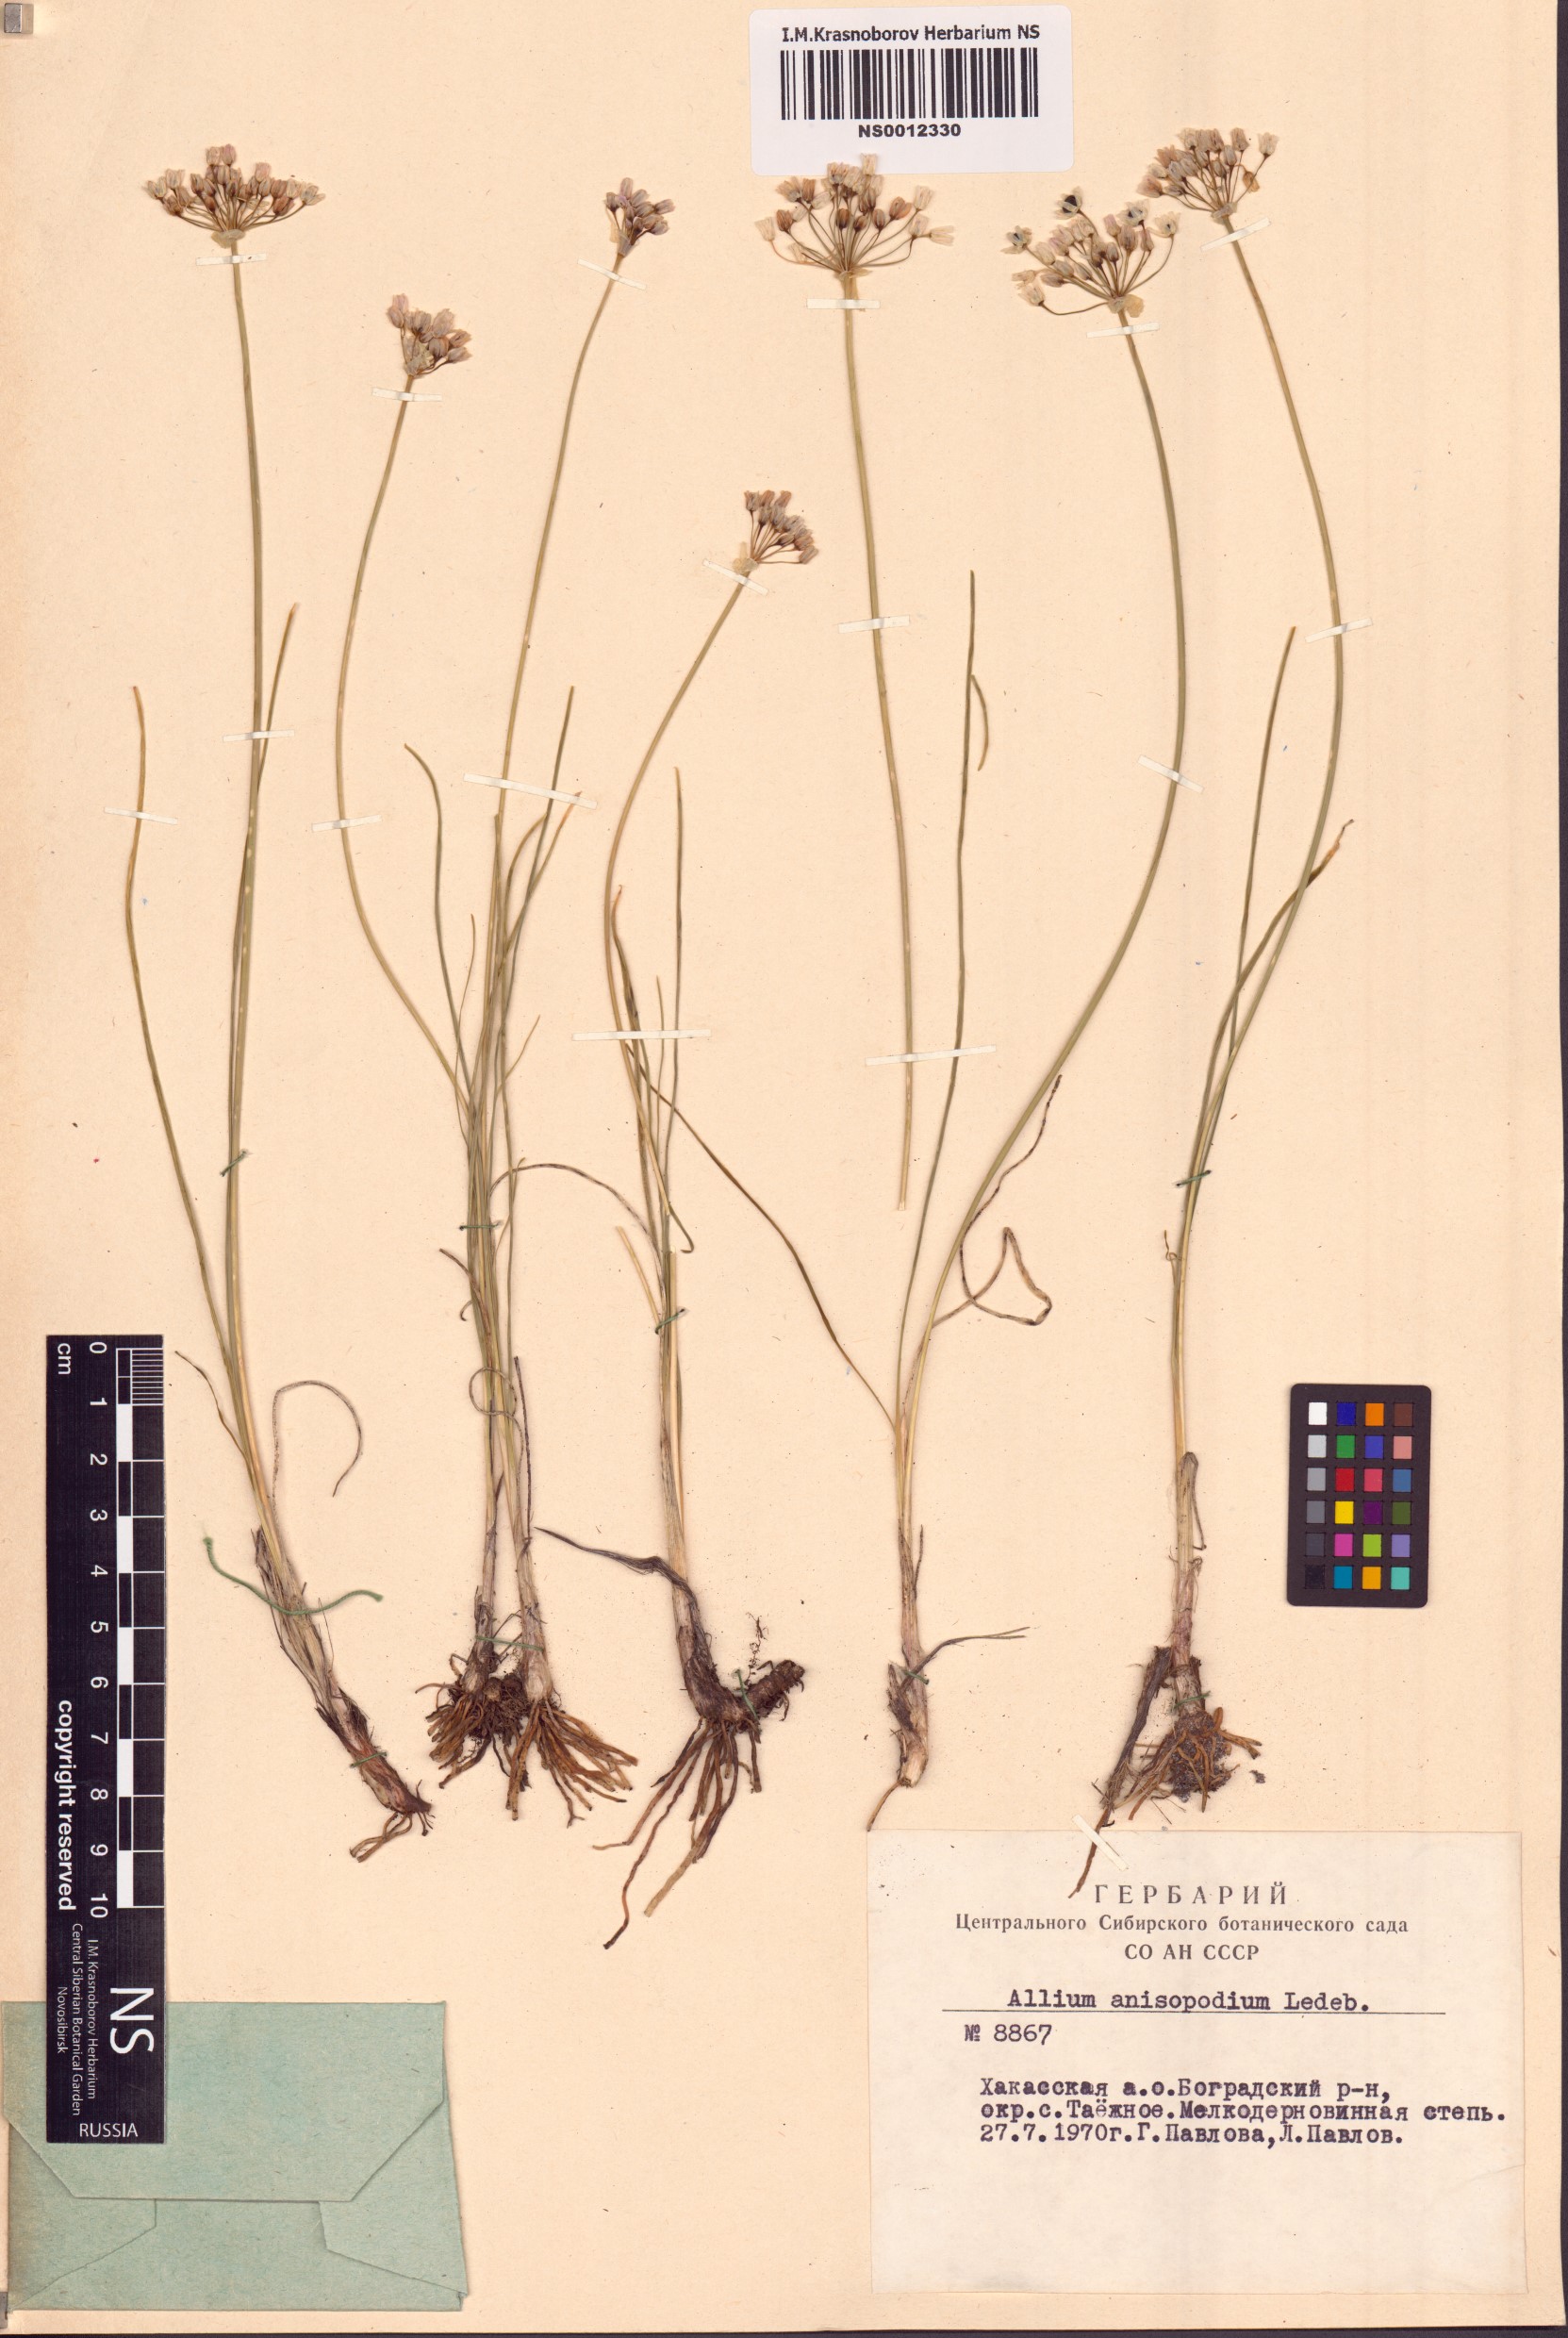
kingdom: Plantae
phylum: Tracheophyta
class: Liliopsida
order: Asparagales
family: Amaryllidaceae
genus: Allium
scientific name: Allium anisopodium
